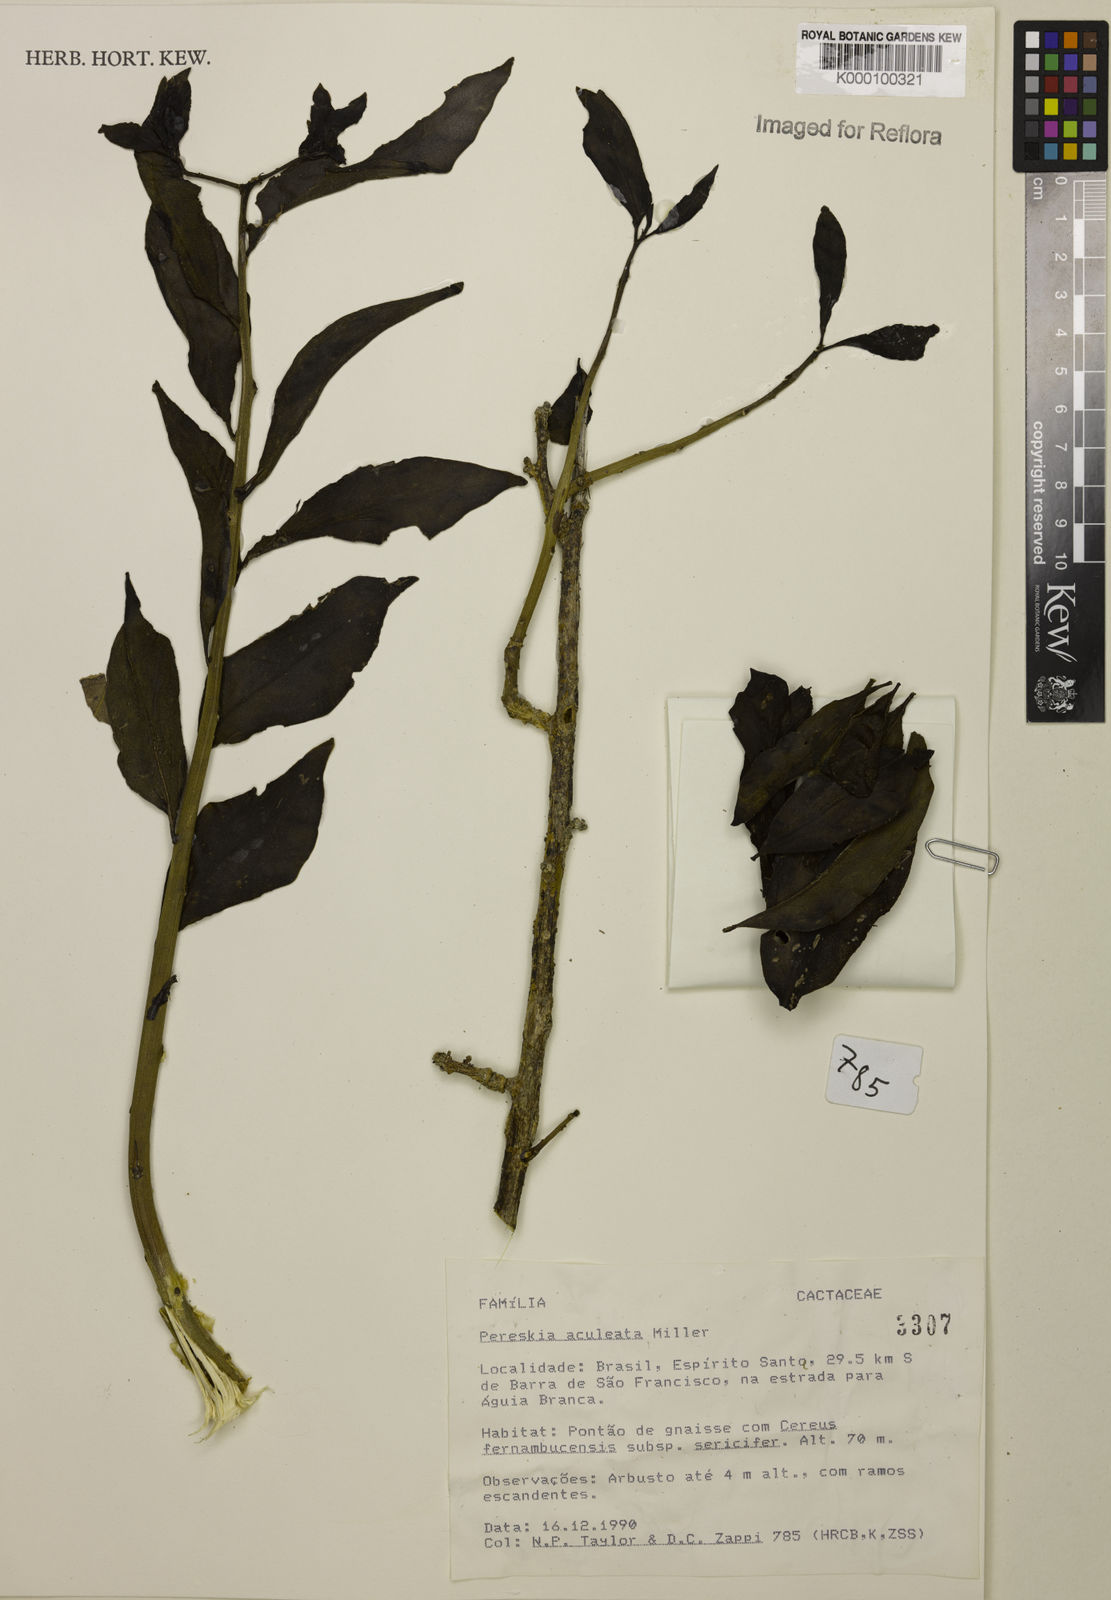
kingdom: Plantae
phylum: Tracheophyta
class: Magnoliopsida
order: Caryophyllales
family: Cactaceae
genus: Pereskia
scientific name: Pereskia aculeata
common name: Barbados gooseberry
